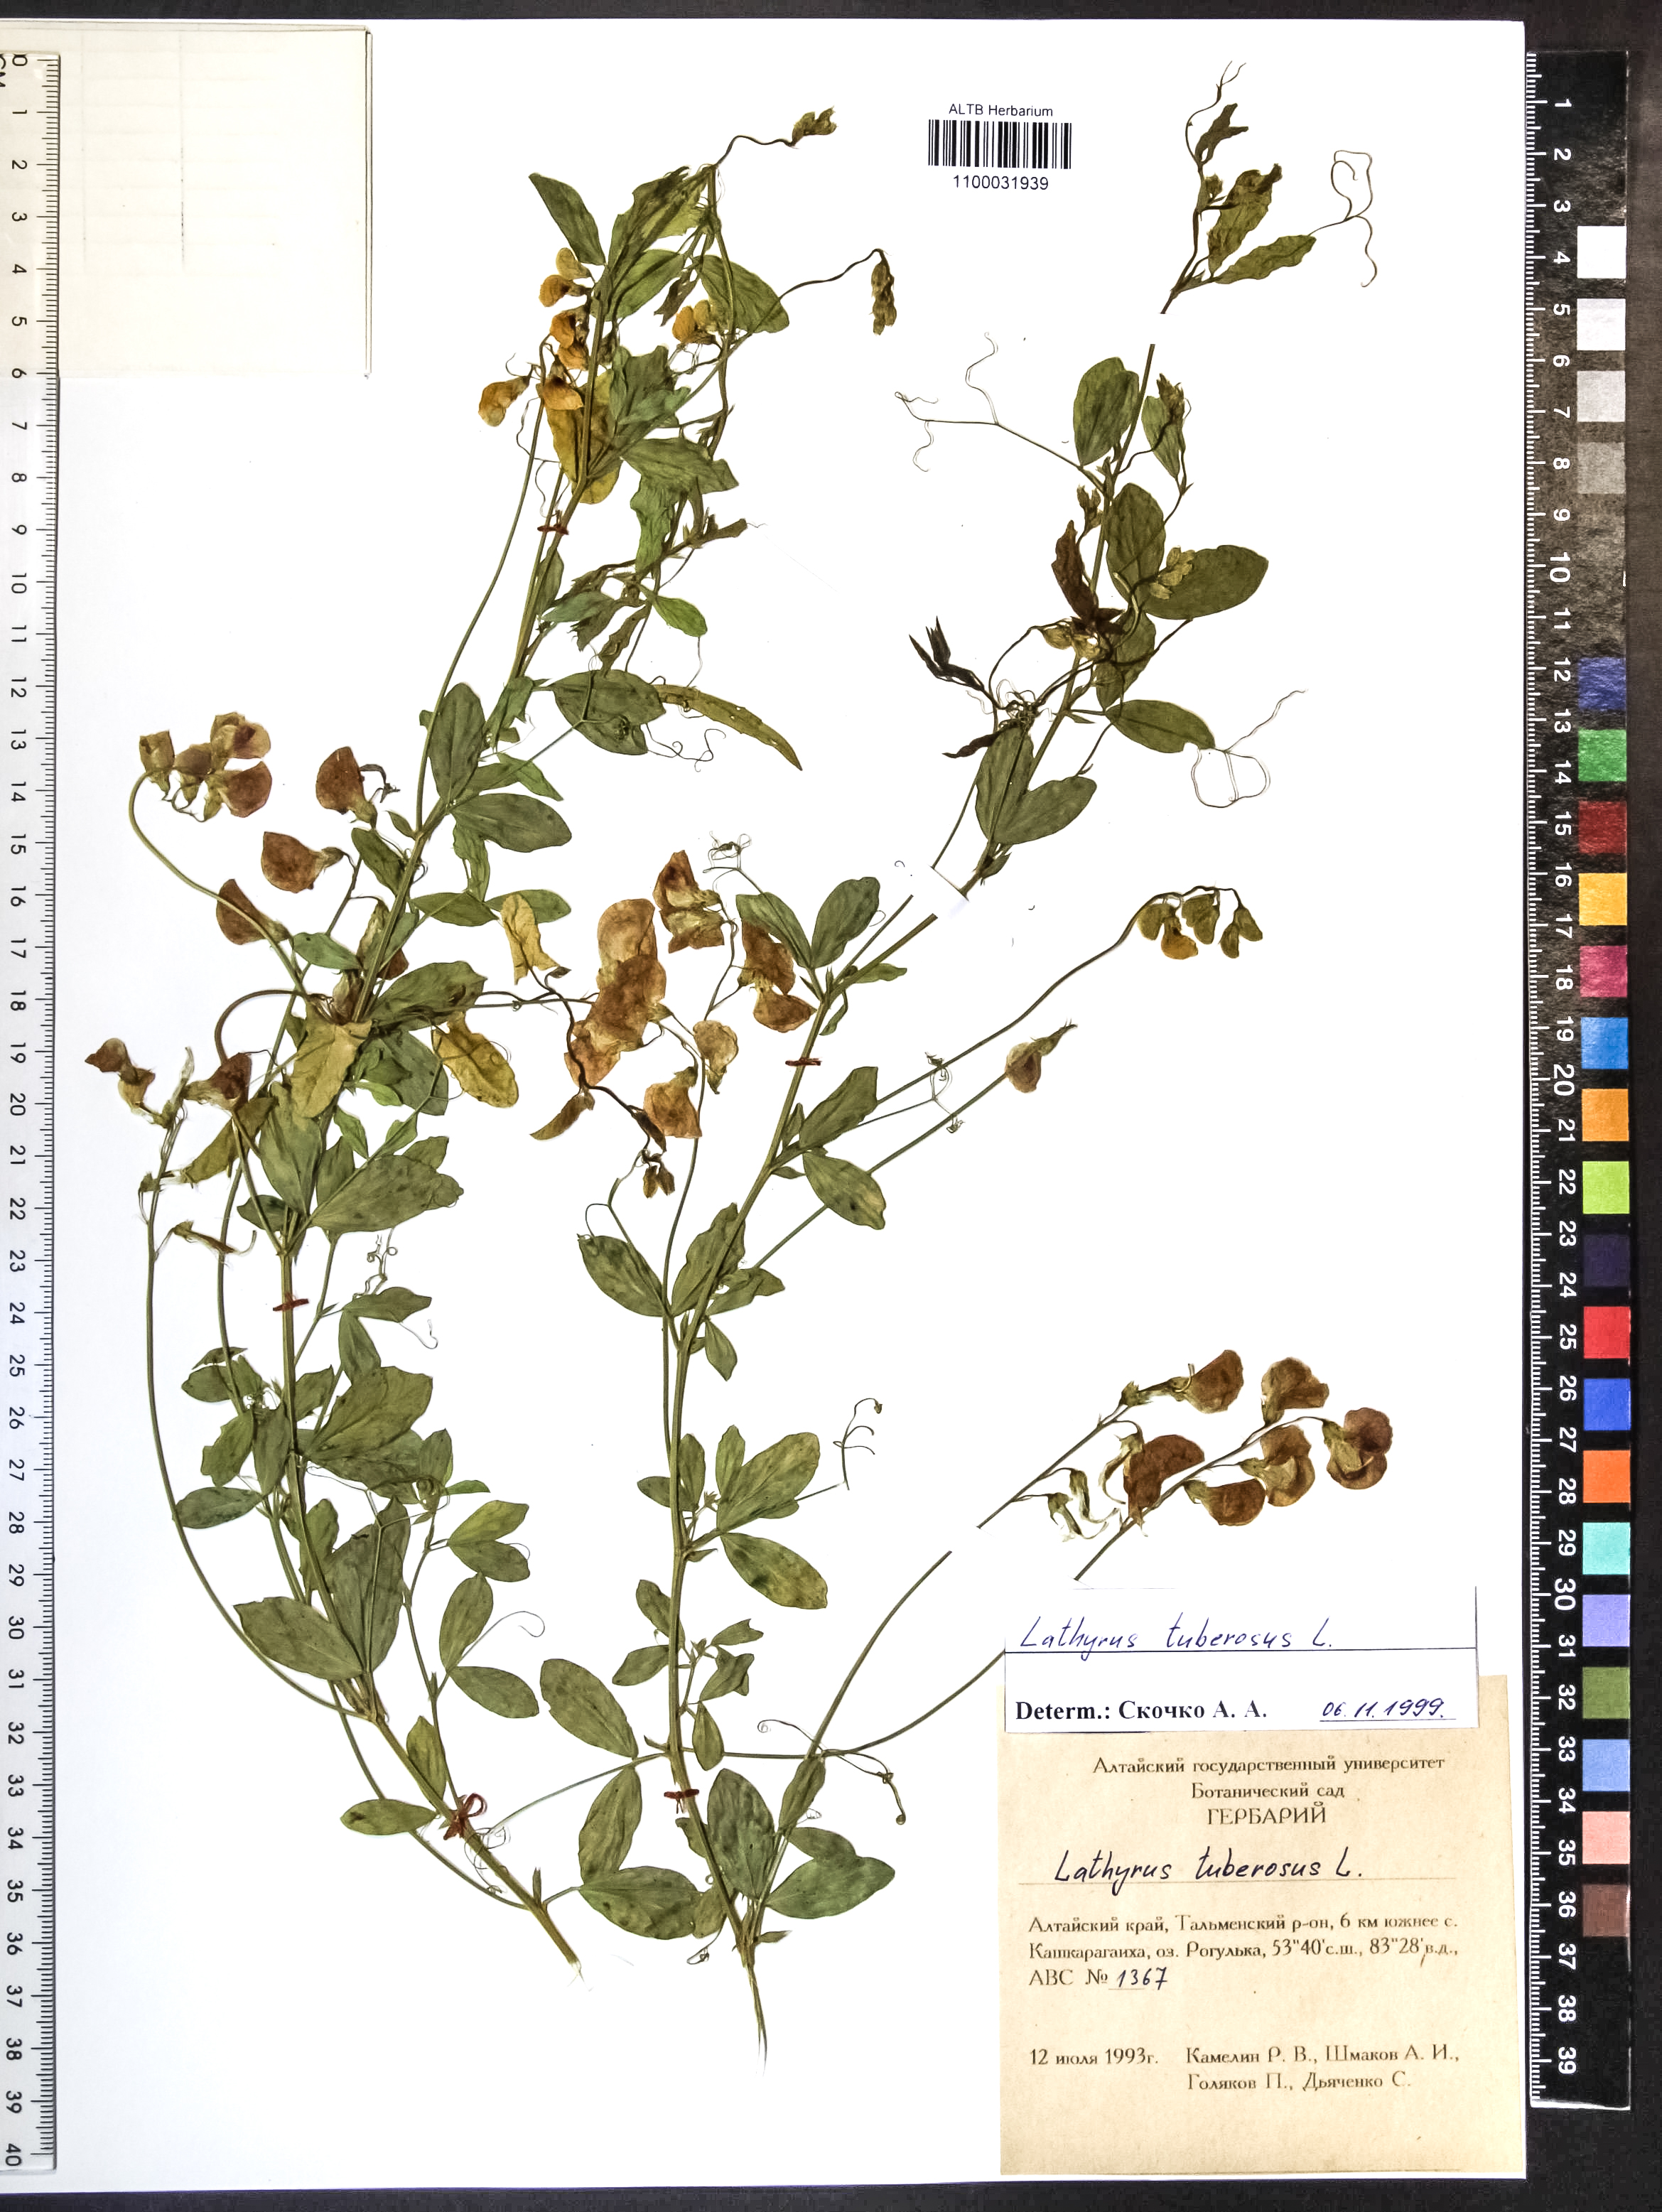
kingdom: Plantae
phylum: Tracheophyta
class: Magnoliopsida
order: Fabales
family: Fabaceae
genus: Lathyrus
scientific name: Lathyrus tuberosus
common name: Tuberous pea
